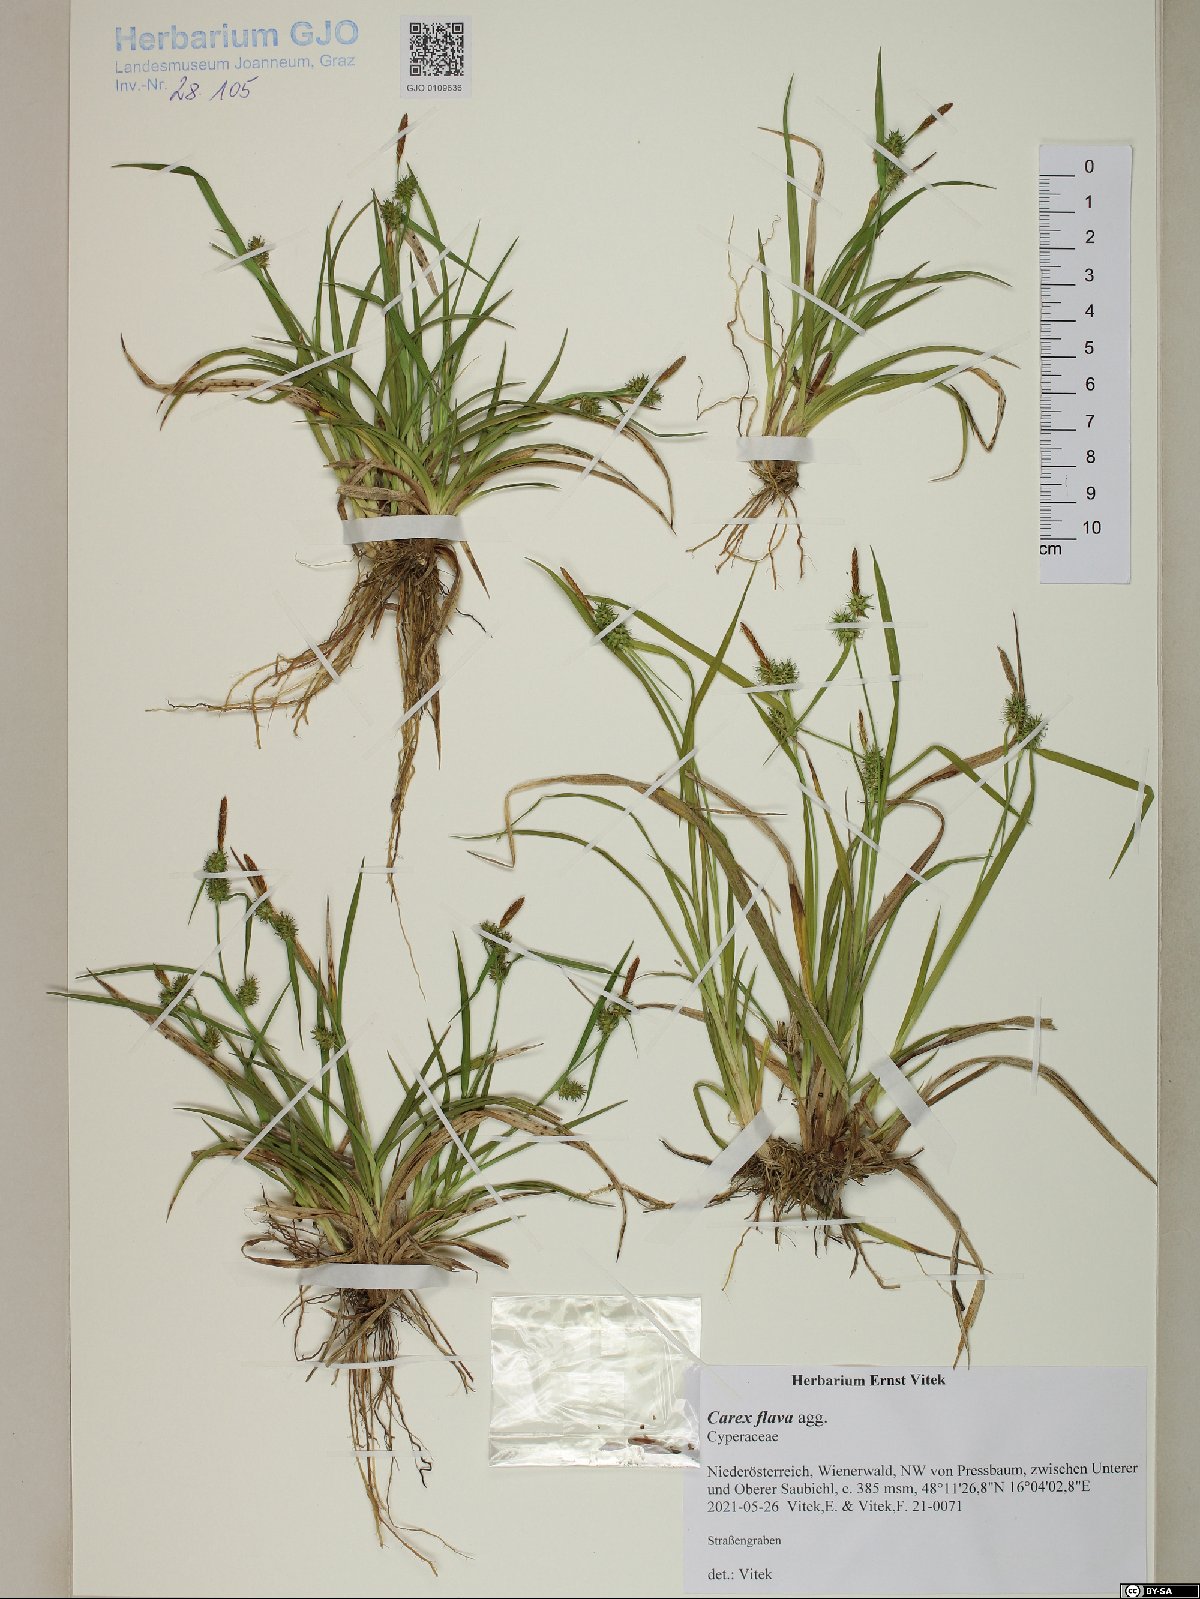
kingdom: Plantae
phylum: Tracheophyta
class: Liliopsida
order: Poales
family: Cyperaceae
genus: Carex
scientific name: Carex flava
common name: Large yellow-sedge
